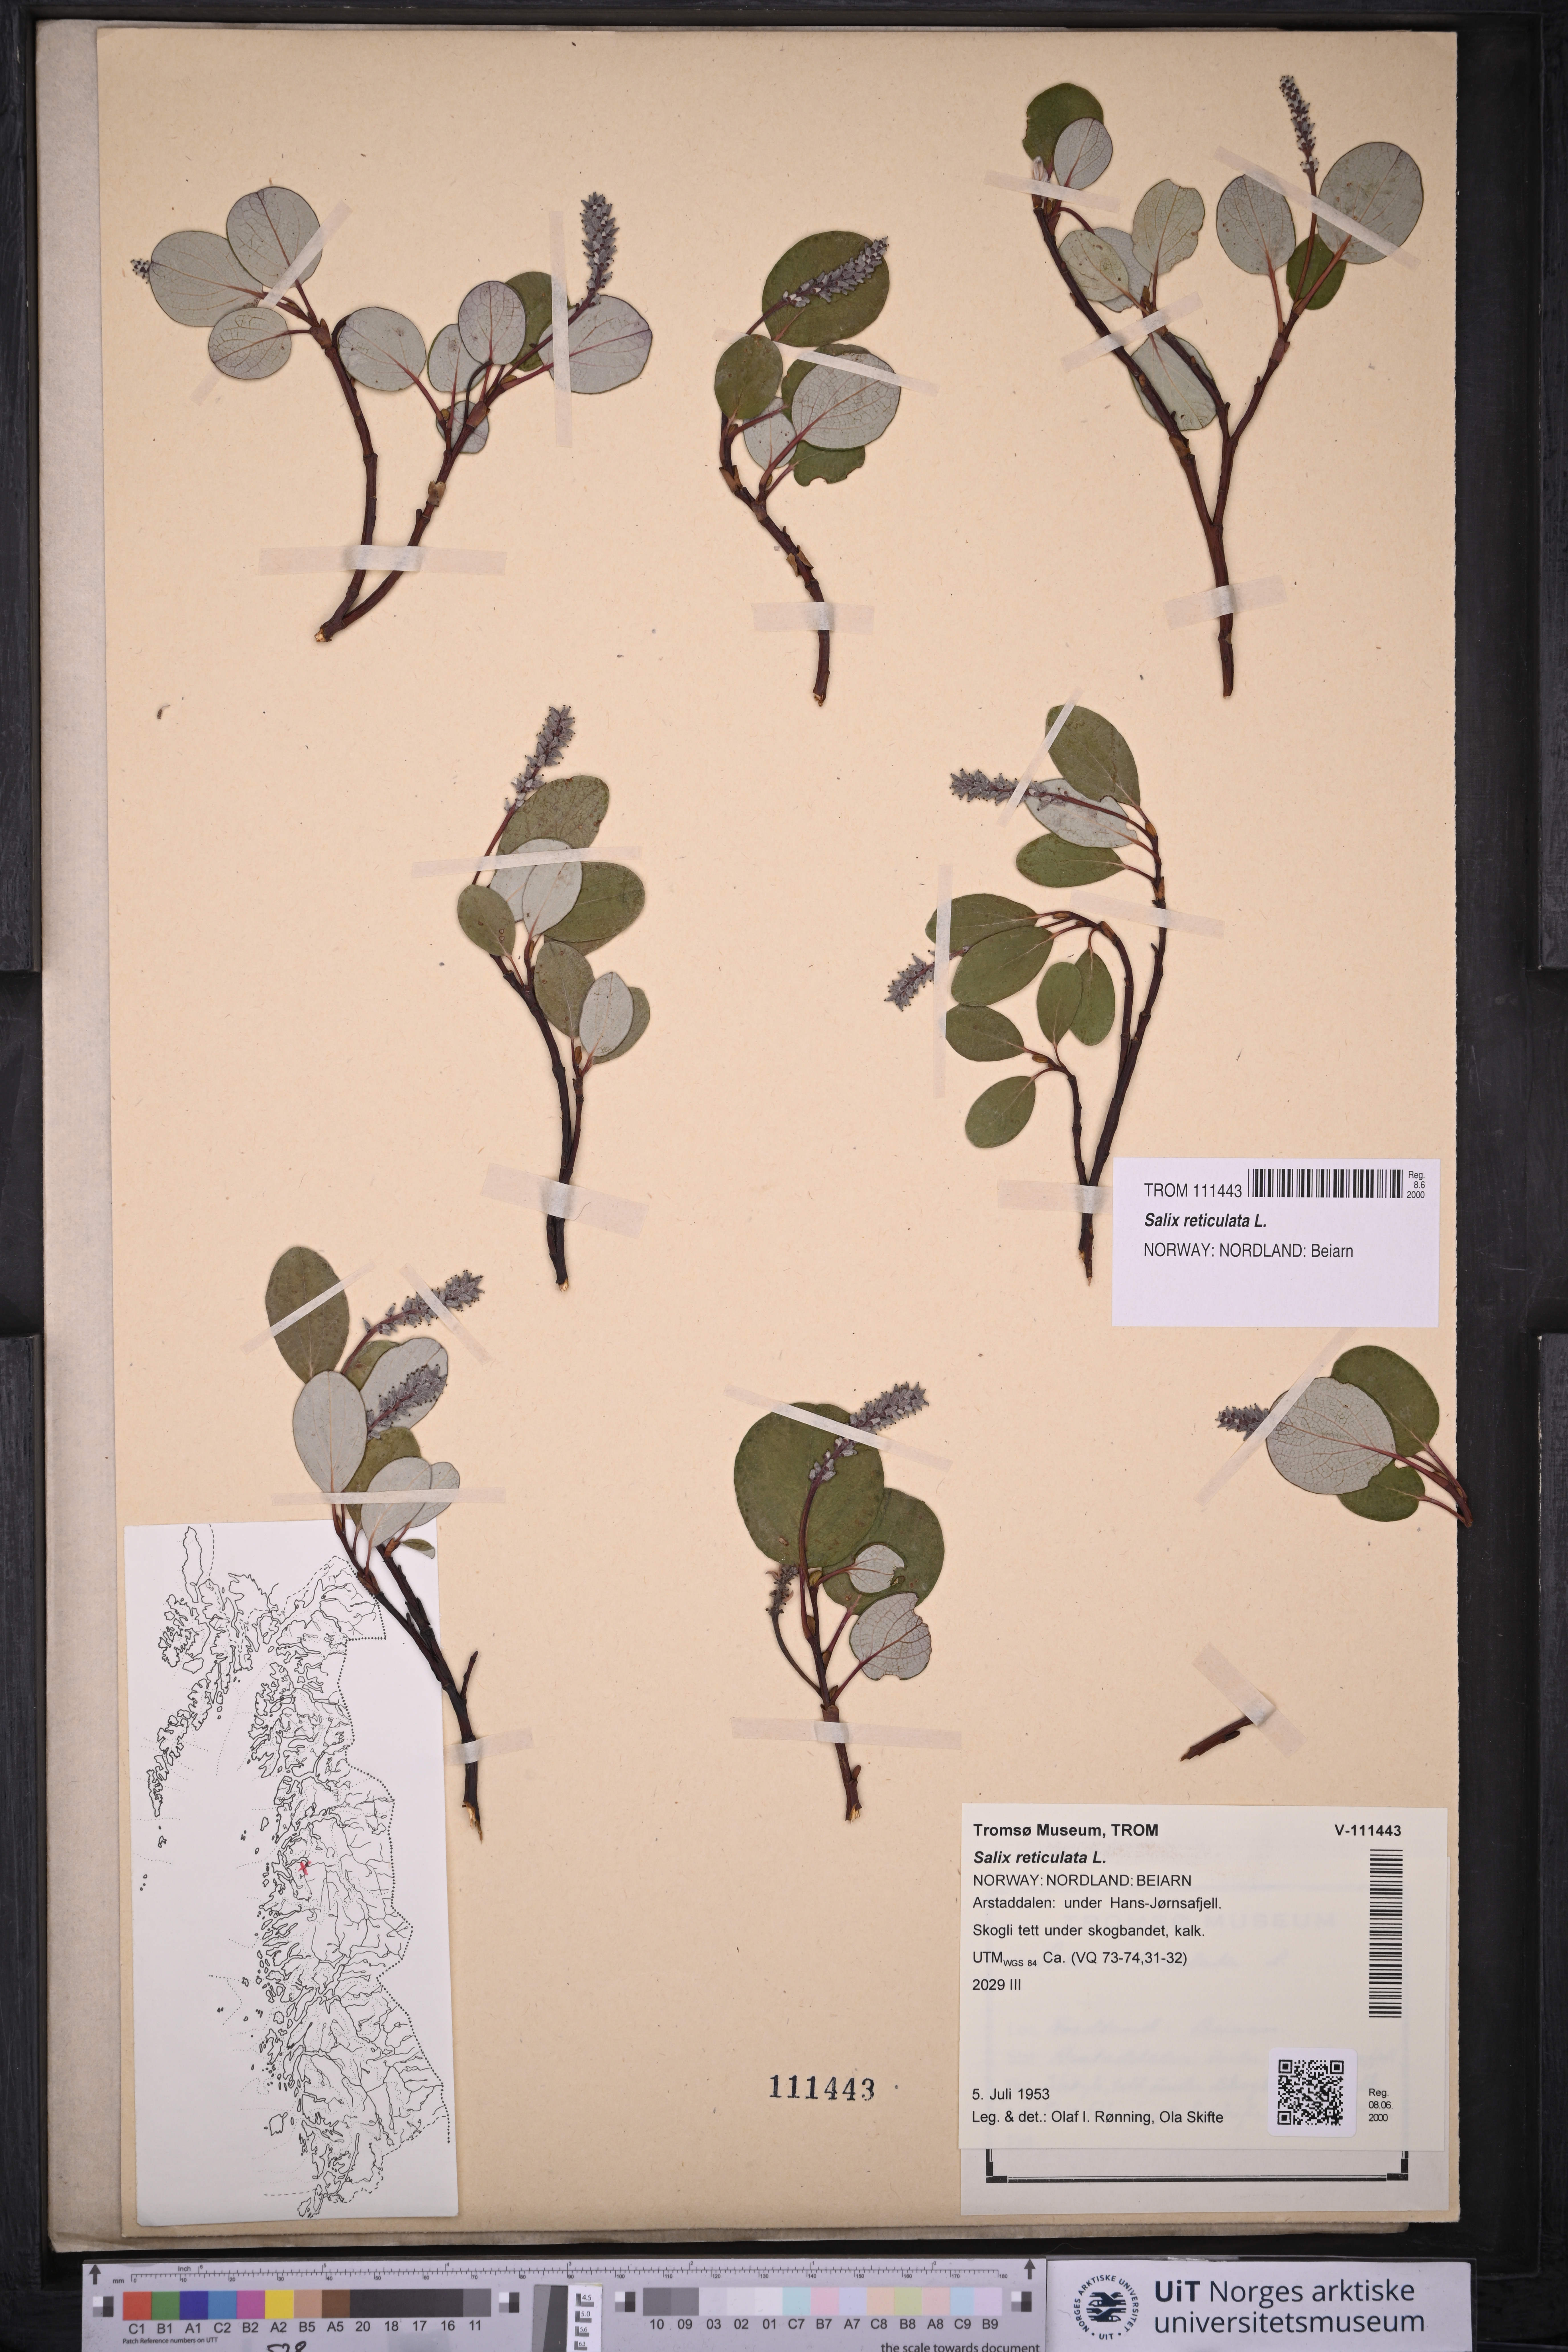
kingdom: Plantae
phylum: Tracheophyta
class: Magnoliopsida
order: Malpighiales
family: Salicaceae
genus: Salix
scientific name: Salix reticulata
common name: Net-leaved willow
